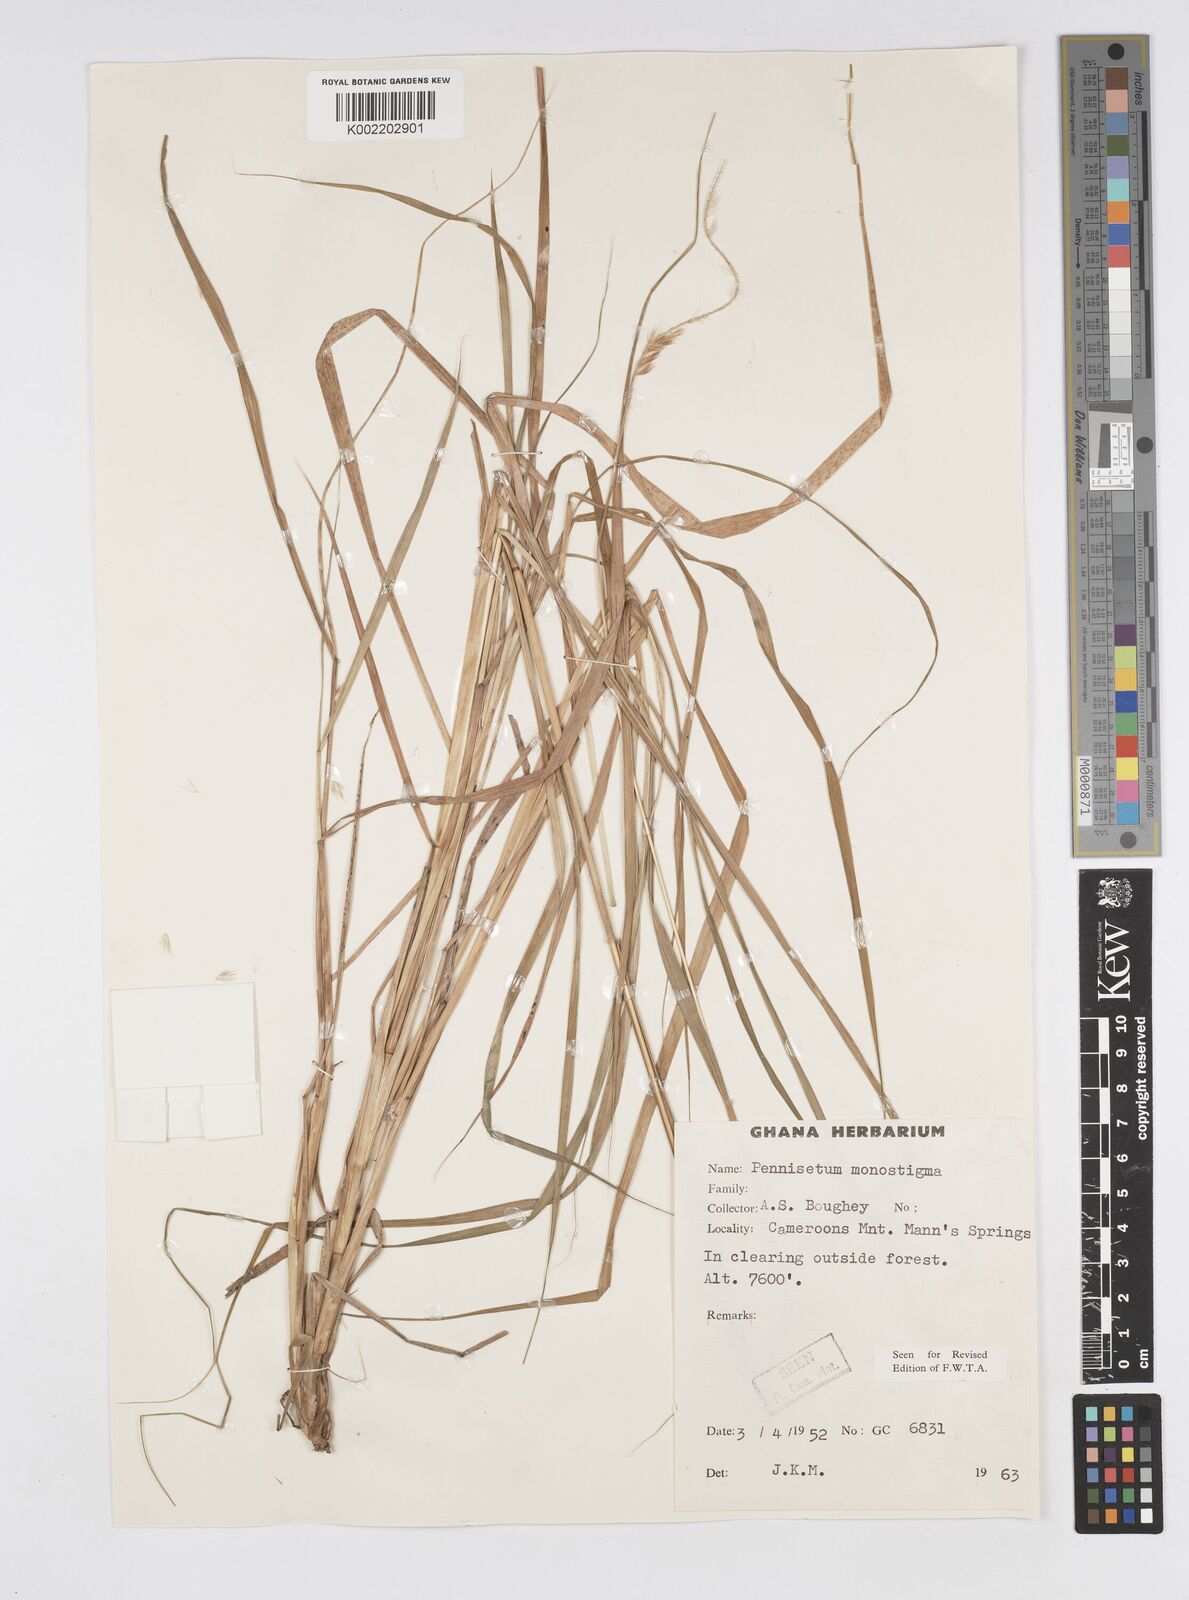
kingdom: Plantae
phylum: Tracheophyta
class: Liliopsida
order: Poales
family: Poaceae
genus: Cenchrus
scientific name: Cenchrus monostigma
